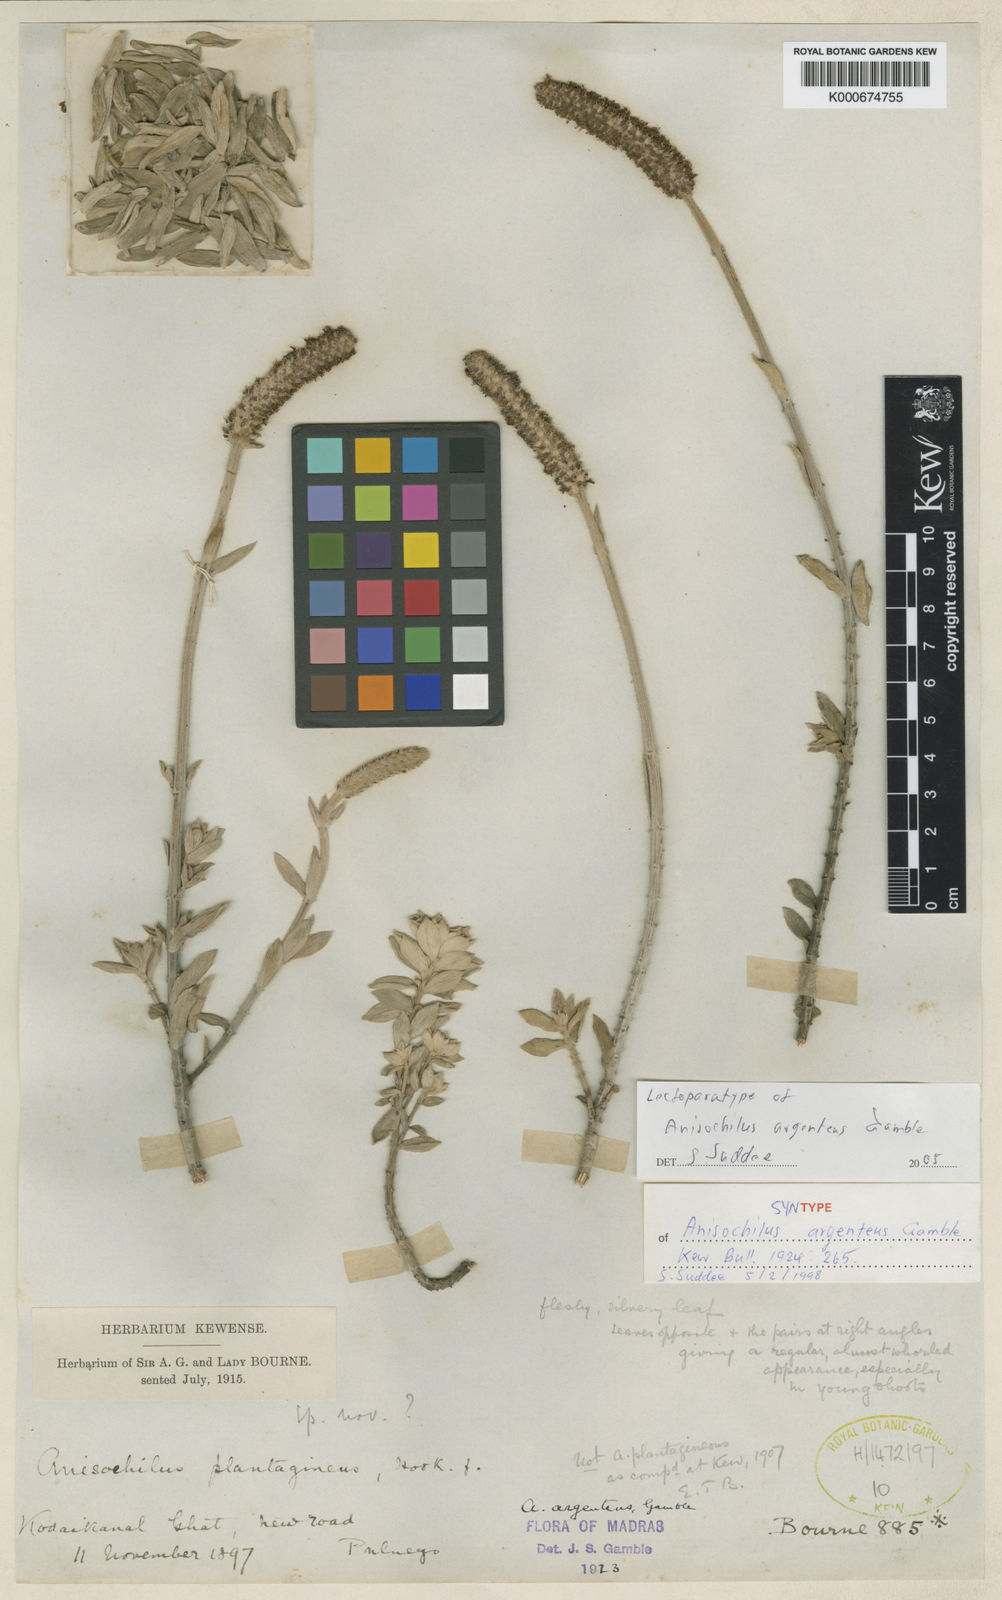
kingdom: Plantae
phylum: Tracheophyta
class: Magnoliopsida
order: Lamiales
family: Lamiaceae
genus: Coleus
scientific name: Coleus argenteus
